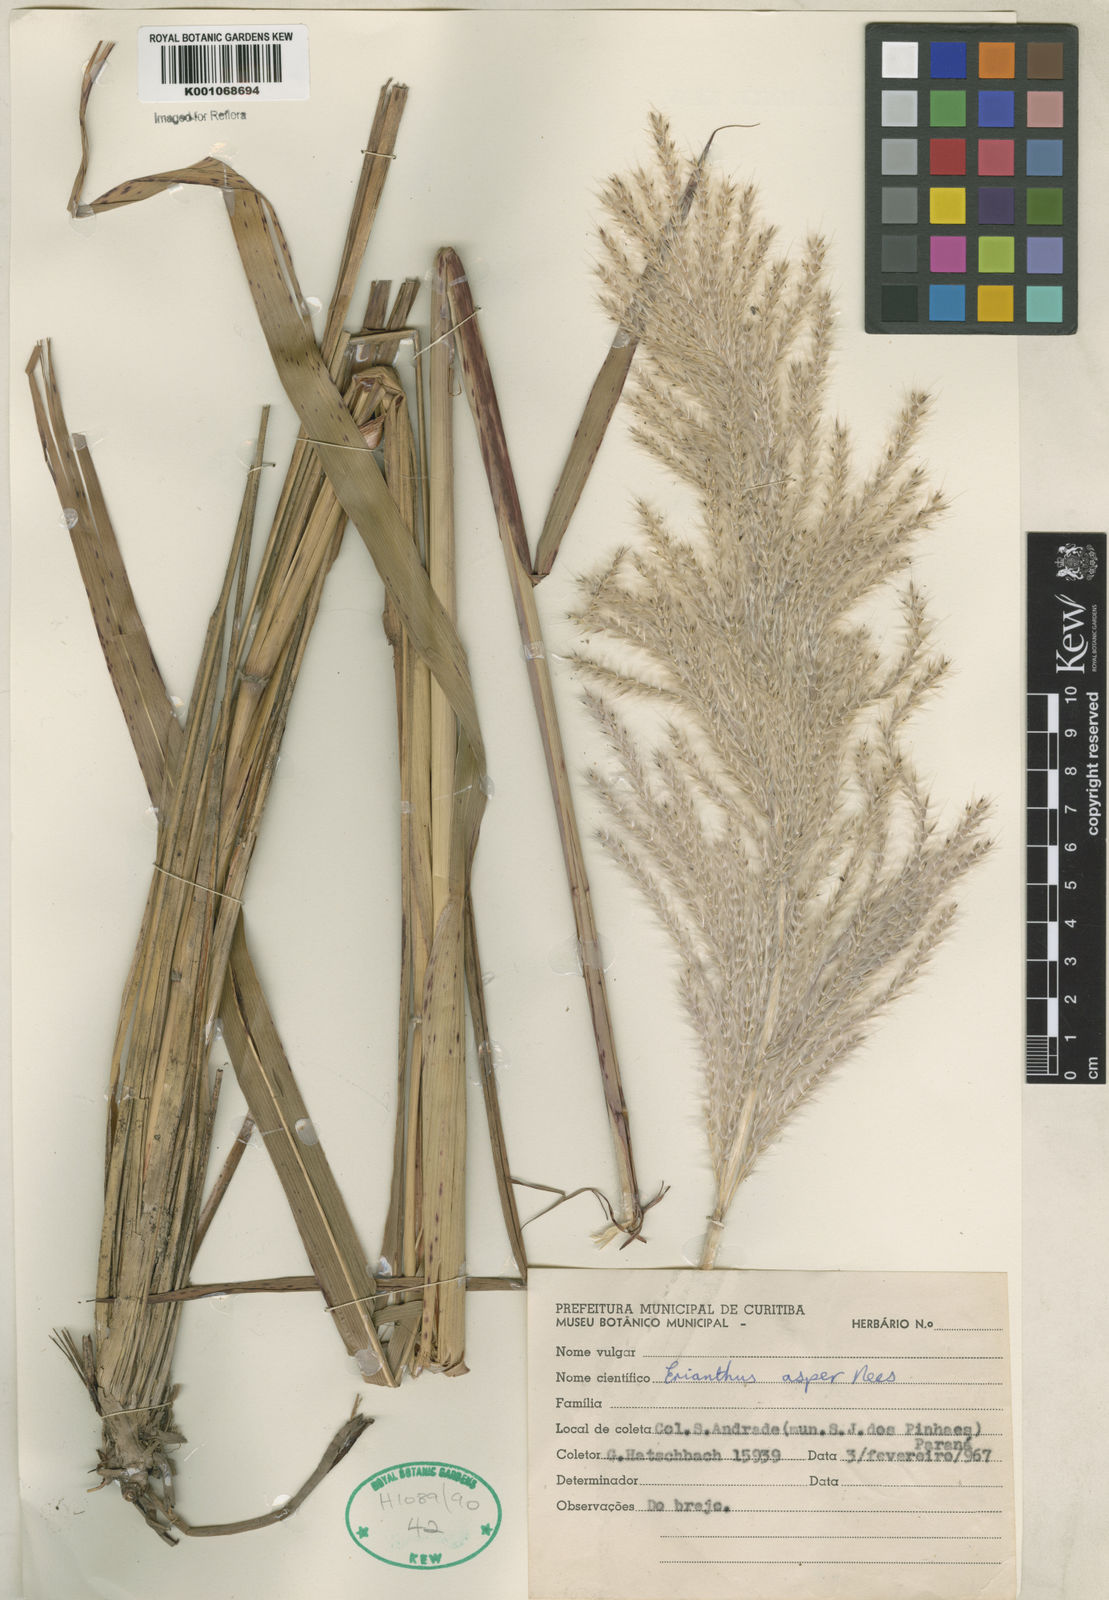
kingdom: Plantae
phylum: Tracheophyta
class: Liliopsida
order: Poales
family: Poaceae
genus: Erianthus
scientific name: Erianthus asper
